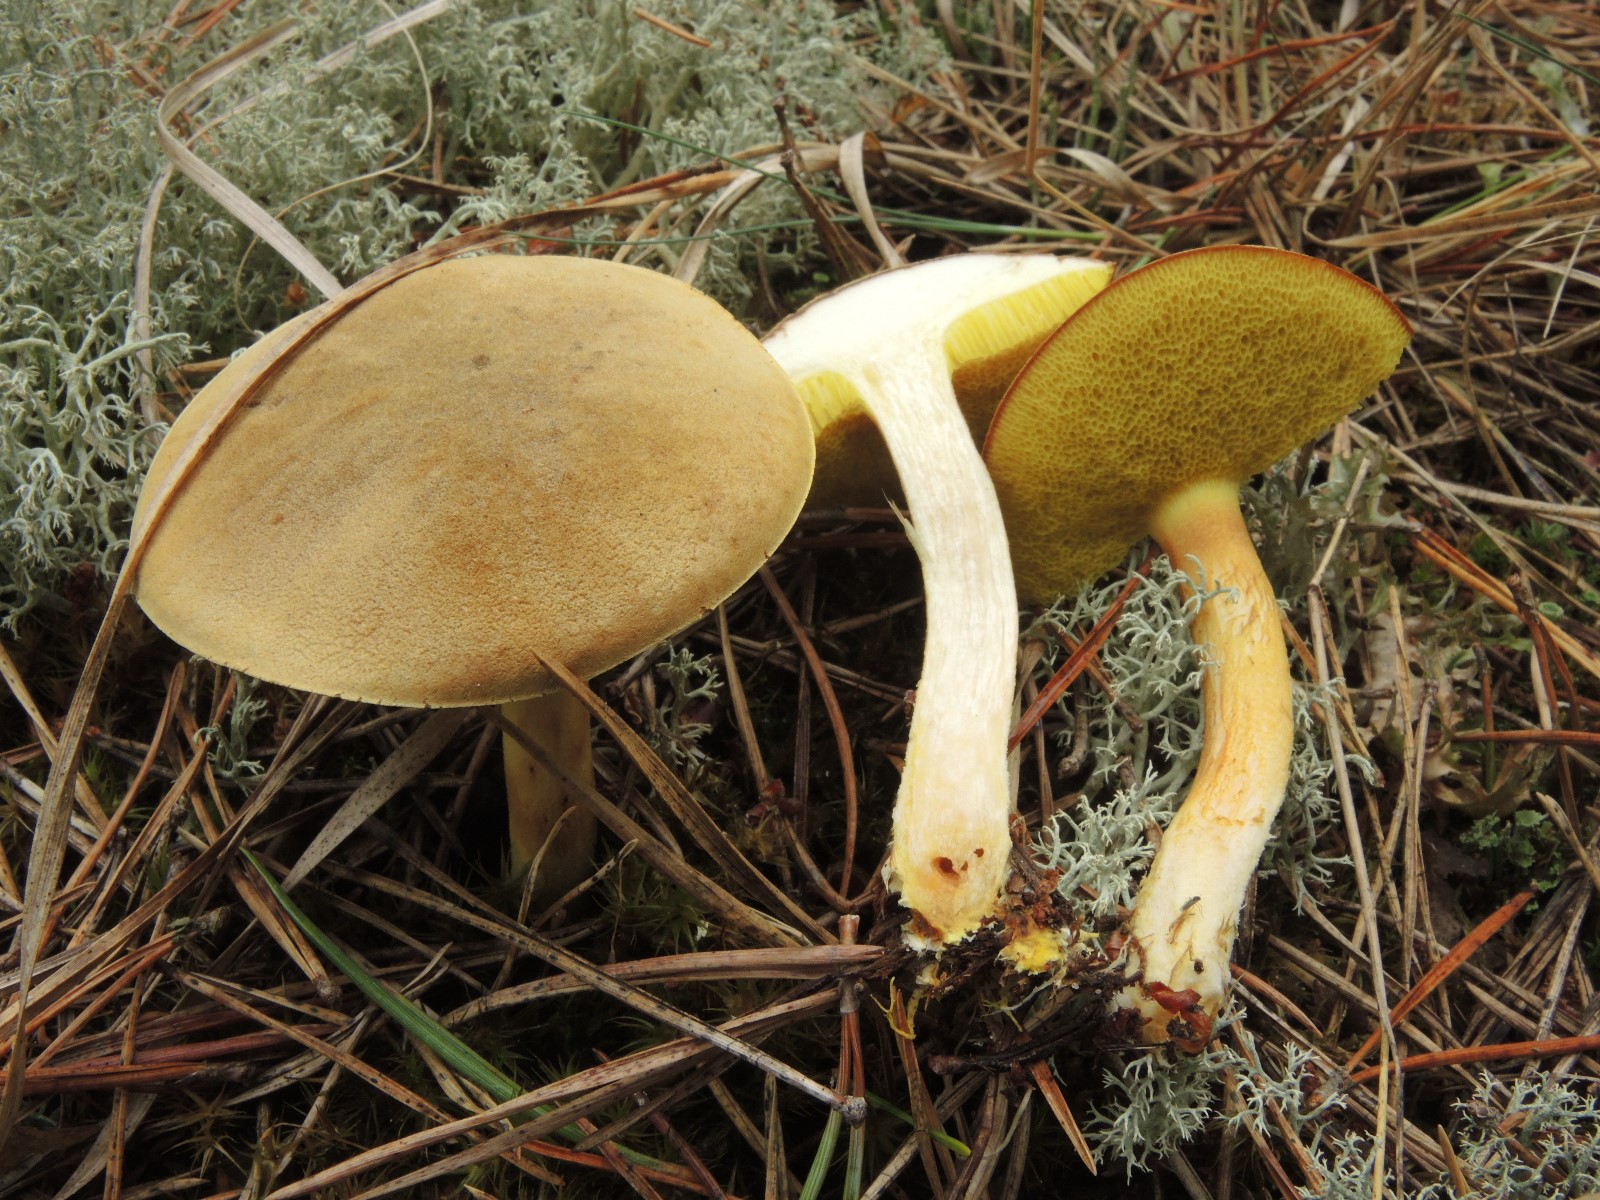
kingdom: Fungi
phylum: Basidiomycota
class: Agaricomycetes
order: Boletales
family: Boletaceae
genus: Xerocomus
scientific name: Xerocomus subtomentosus
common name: filtet rørhat
